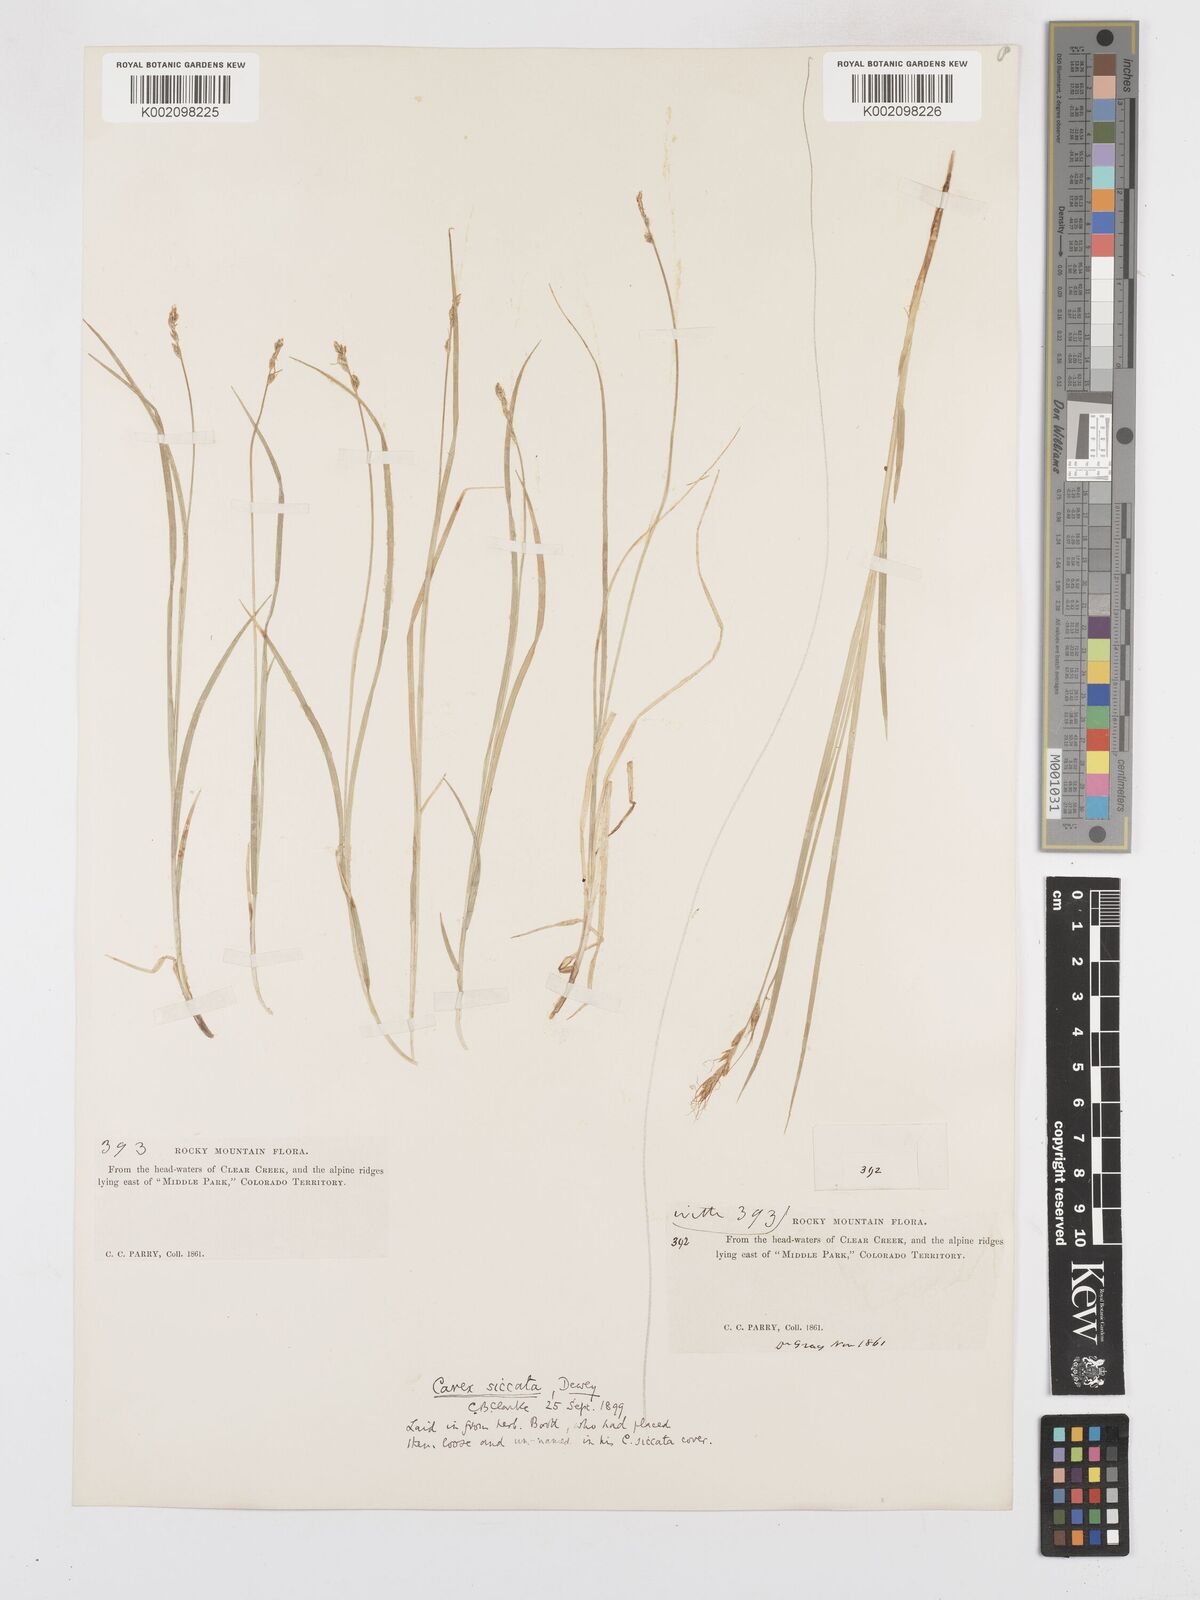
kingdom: Plantae
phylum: Tracheophyta
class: Liliopsida
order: Poales
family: Cyperaceae
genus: Carex
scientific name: Carex foenea
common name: Bronze sedge
